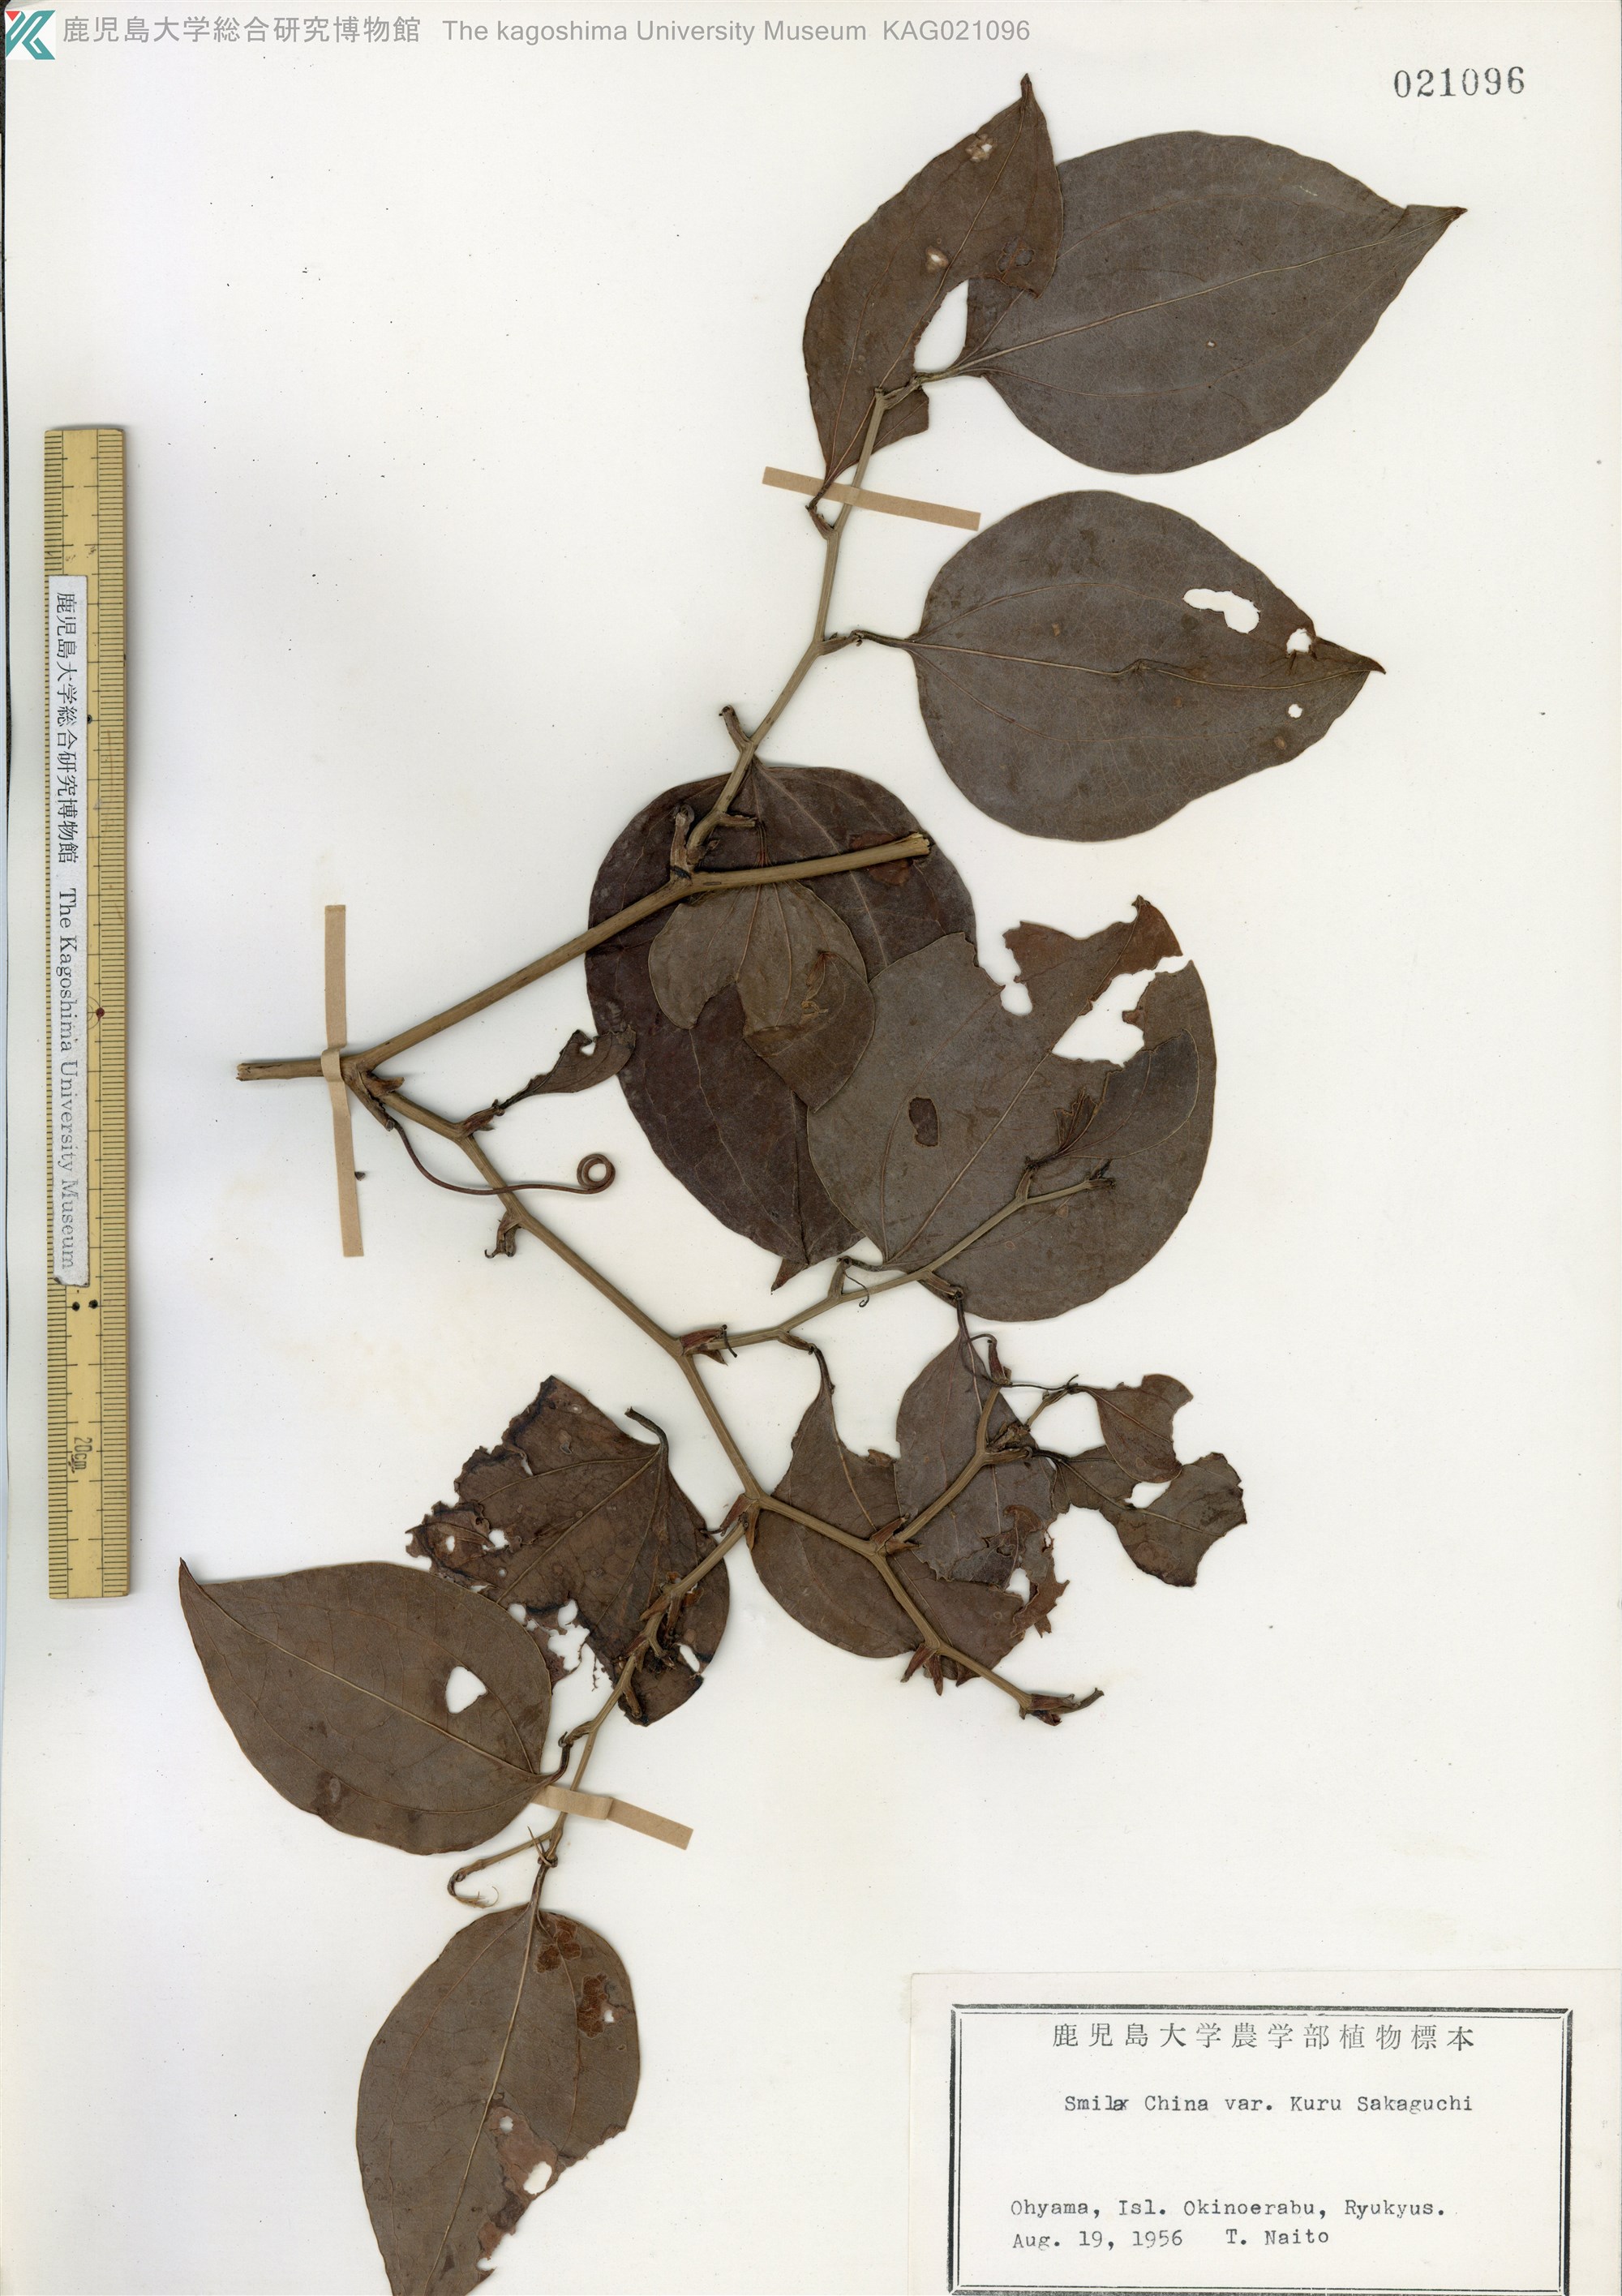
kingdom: Plantae
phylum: Tracheophyta
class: Liliopsida
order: Liliales
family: Smilacaceae
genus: Smilax
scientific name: Smilax china
